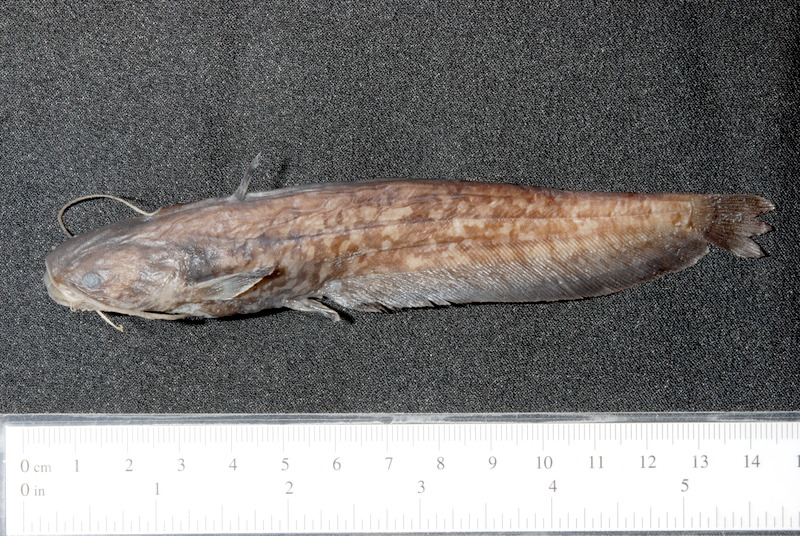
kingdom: Animalia
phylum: Chordata
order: Siluriformes
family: Siluridae
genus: Silurus
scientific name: Silurus glanis
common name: Wels
